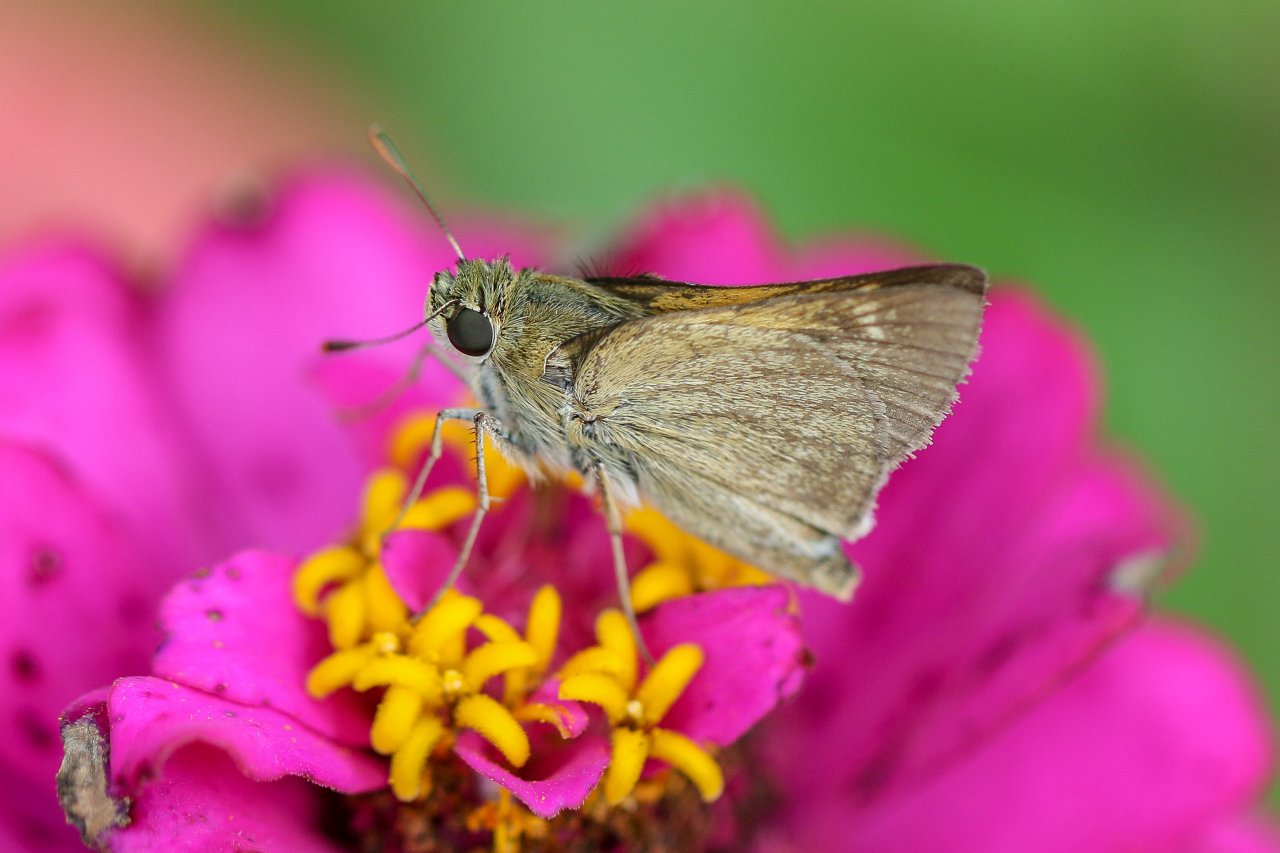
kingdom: Animalia
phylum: Arthropoda
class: Insecta
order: Lepidoptera
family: Hesperiidae
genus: Polites
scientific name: Polites themistocles
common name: Tawny-edged Skipper
